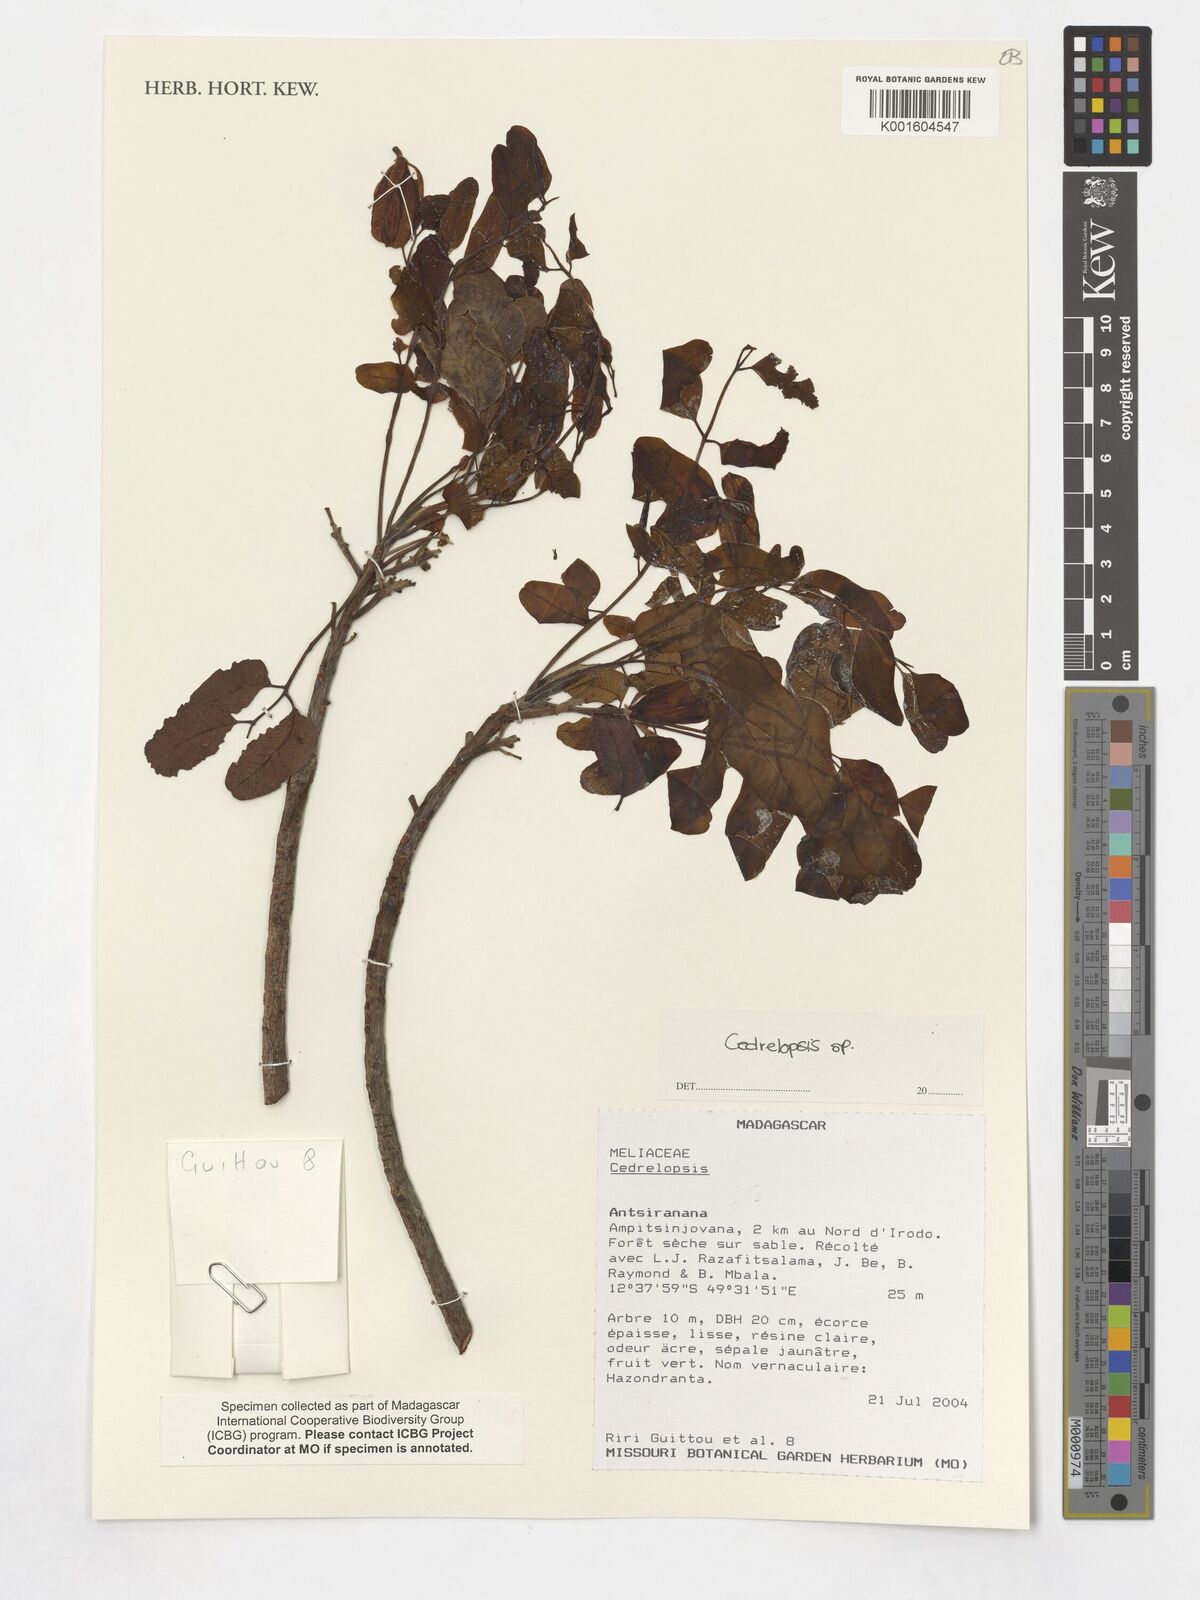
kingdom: Plantae
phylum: Tracheophyta
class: Magnoliopsida
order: Sapindales
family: Rutaceae
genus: Cedrelopsis
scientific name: Cedrelopsis
